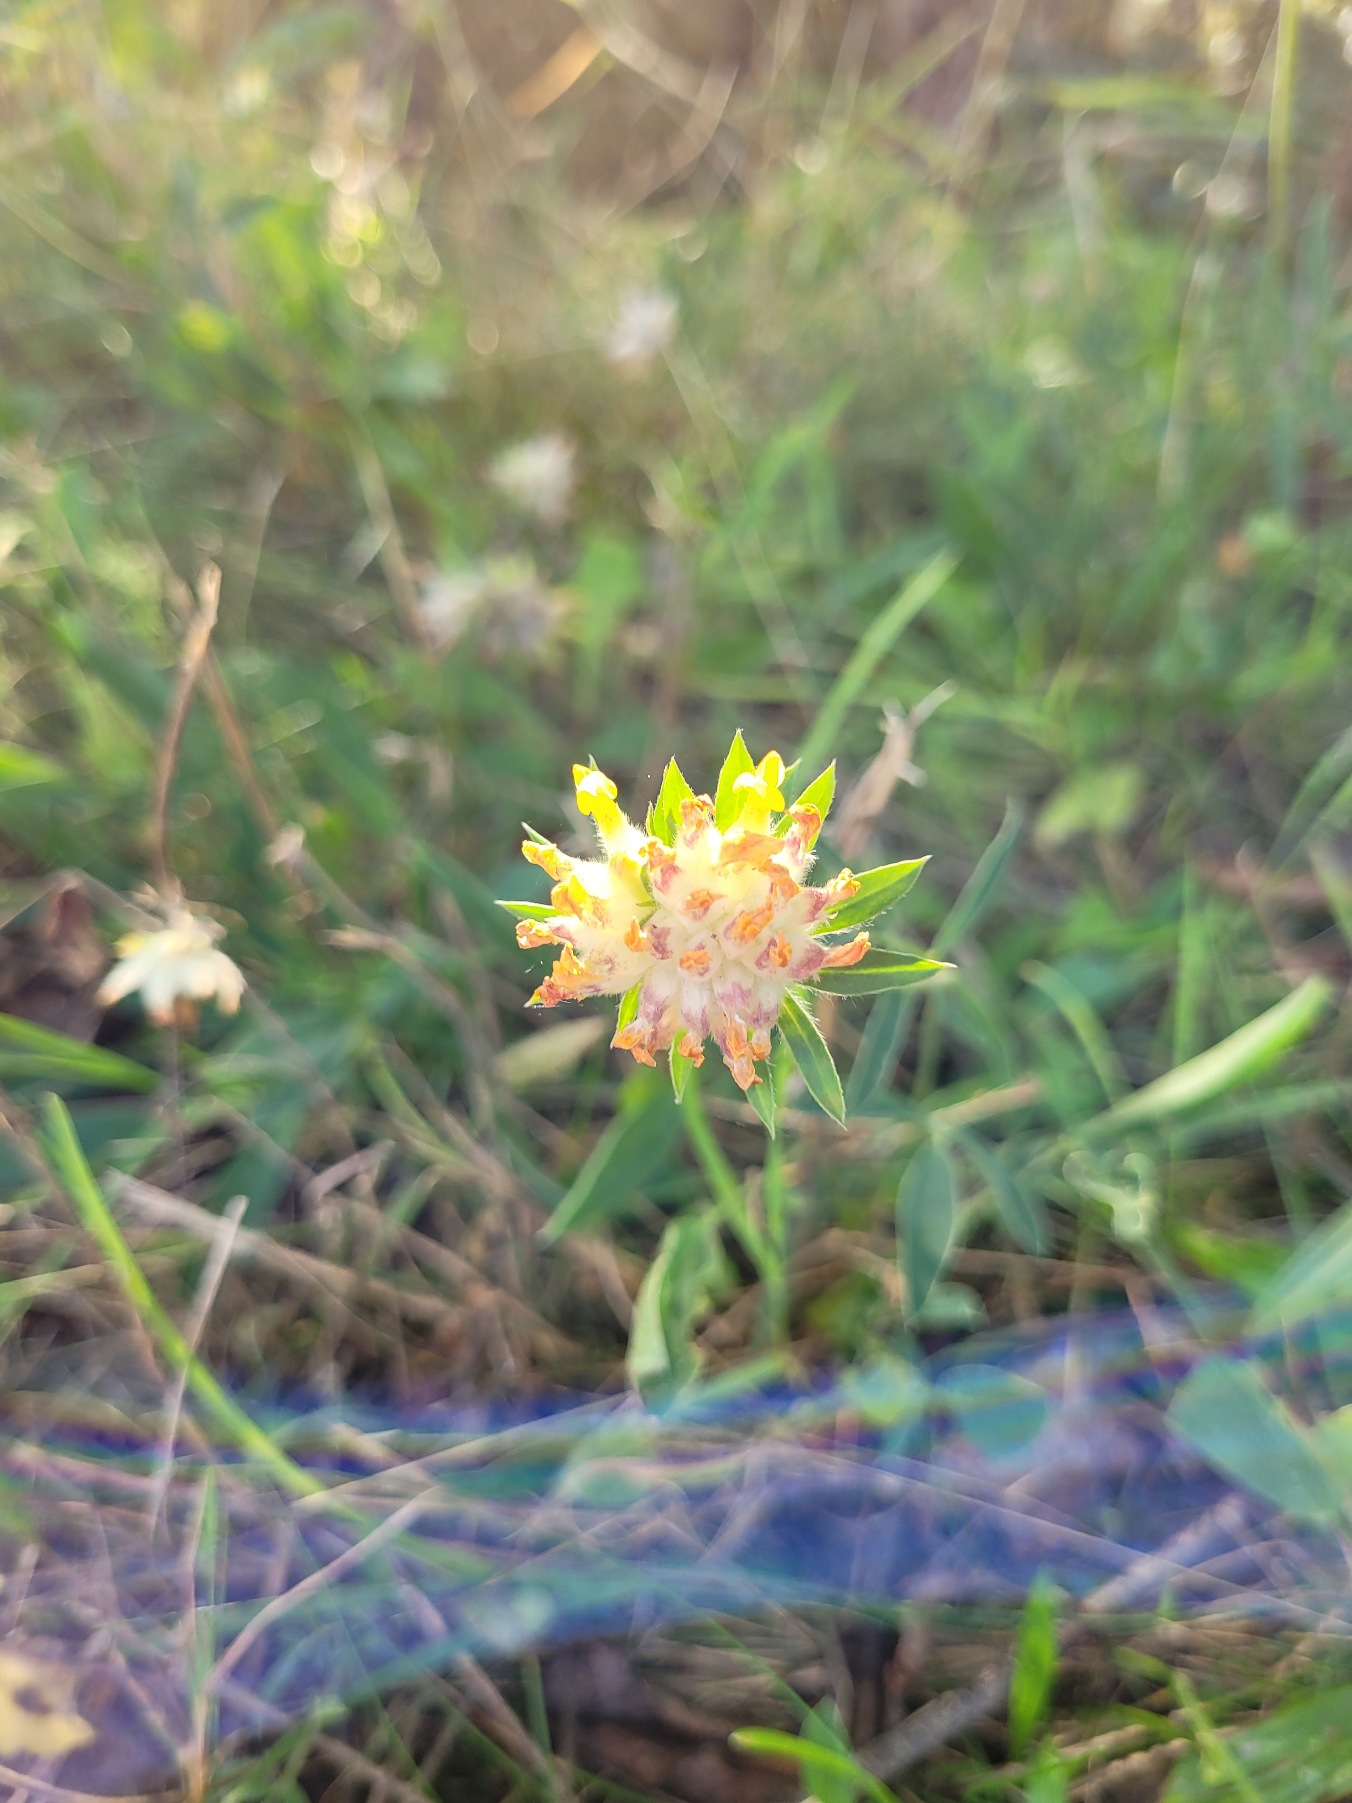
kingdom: Plantae
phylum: Tracheophyta
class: Magnoliopsida
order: Fabales
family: Fabaceae
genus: Anthyllis
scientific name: Anthyllis vulneraria
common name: Rundbælg
